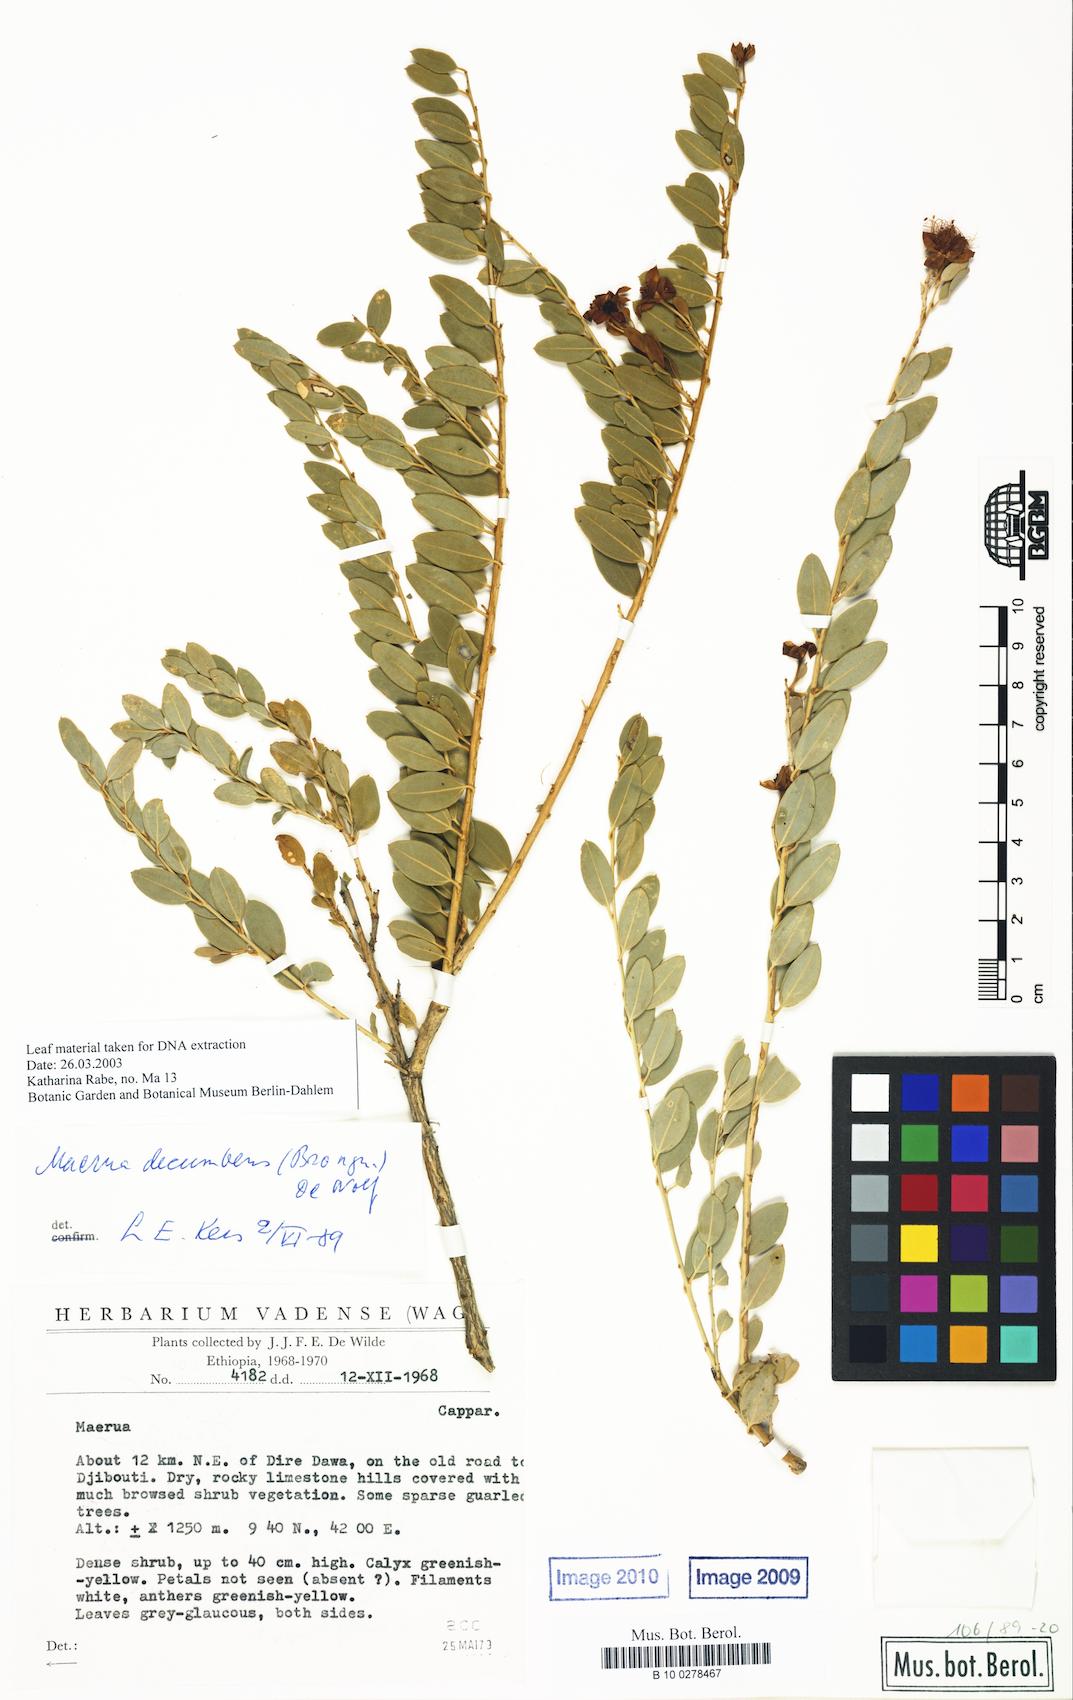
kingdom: Plantae
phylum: Tracheophyta
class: Magnoliopsida
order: Brassicales
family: Capparaceae
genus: Maerua
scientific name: Maerua decumbens
